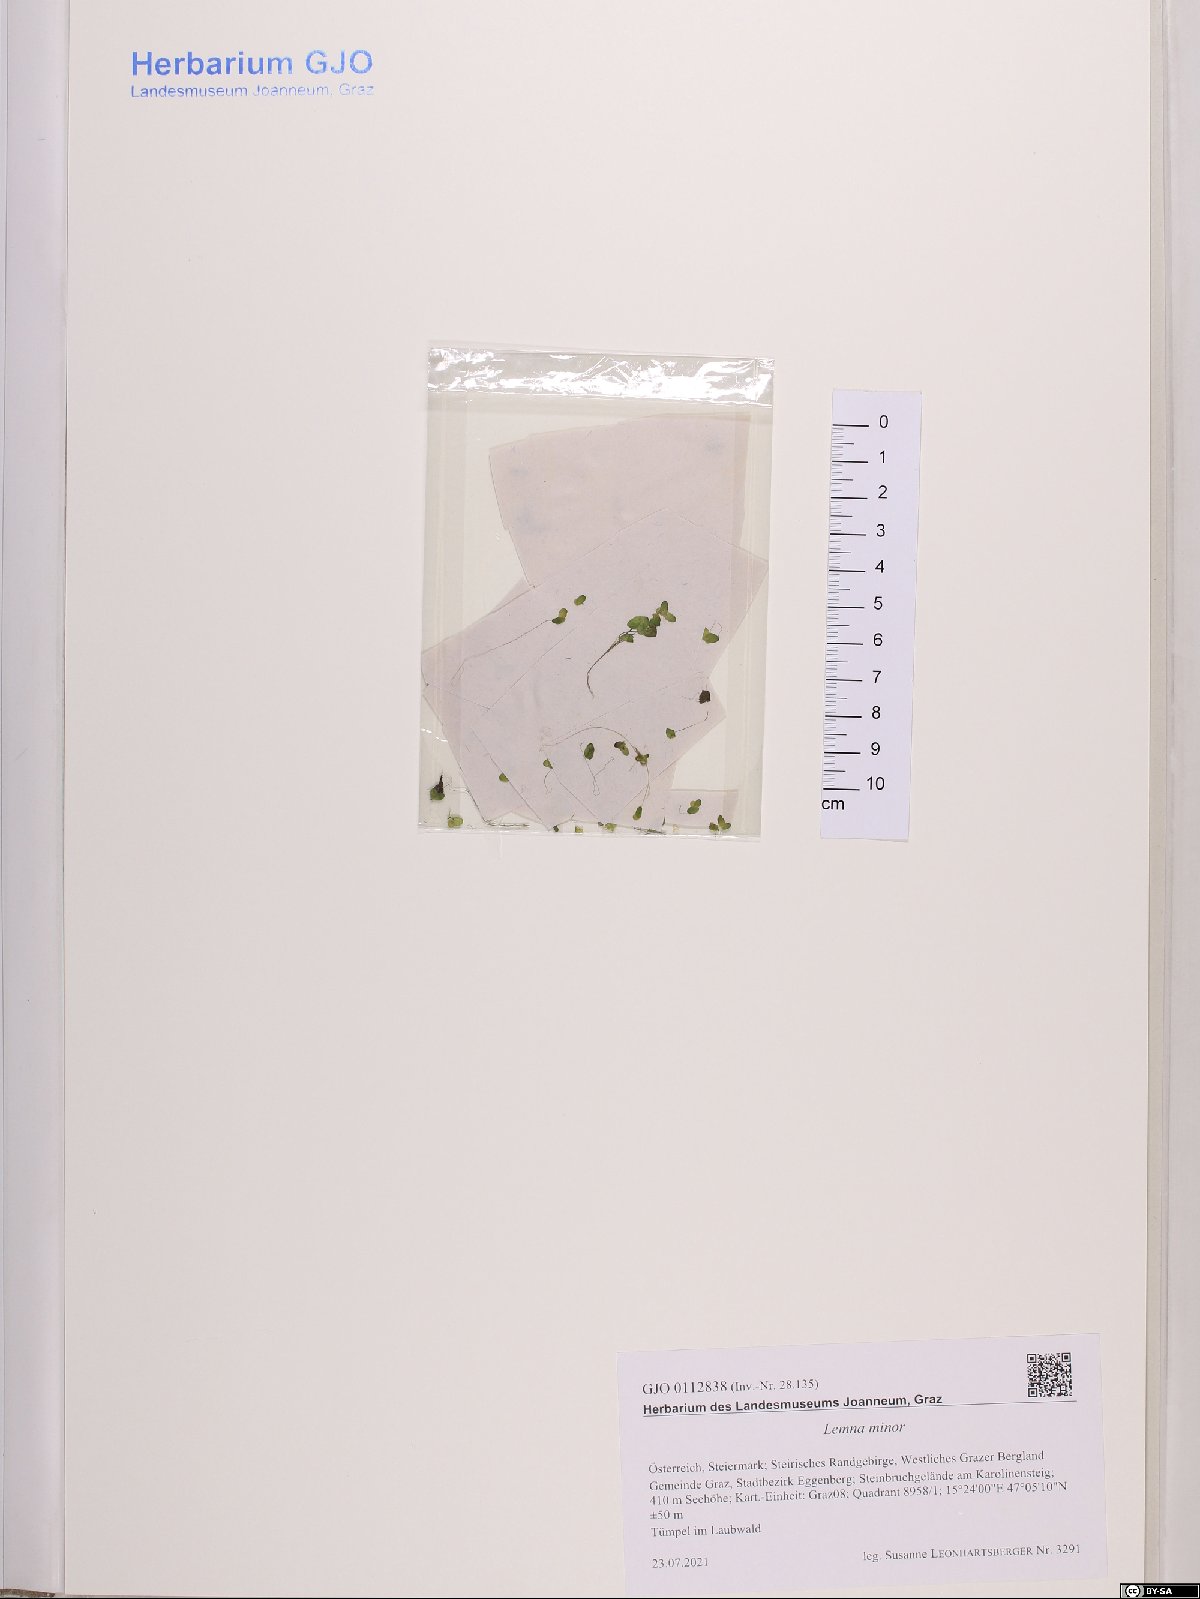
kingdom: Plantae
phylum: Tracheophyta
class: Liliopsida
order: Alismatales
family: Araceae
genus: Lemna
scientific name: Lemna minor
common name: Common duckweed
